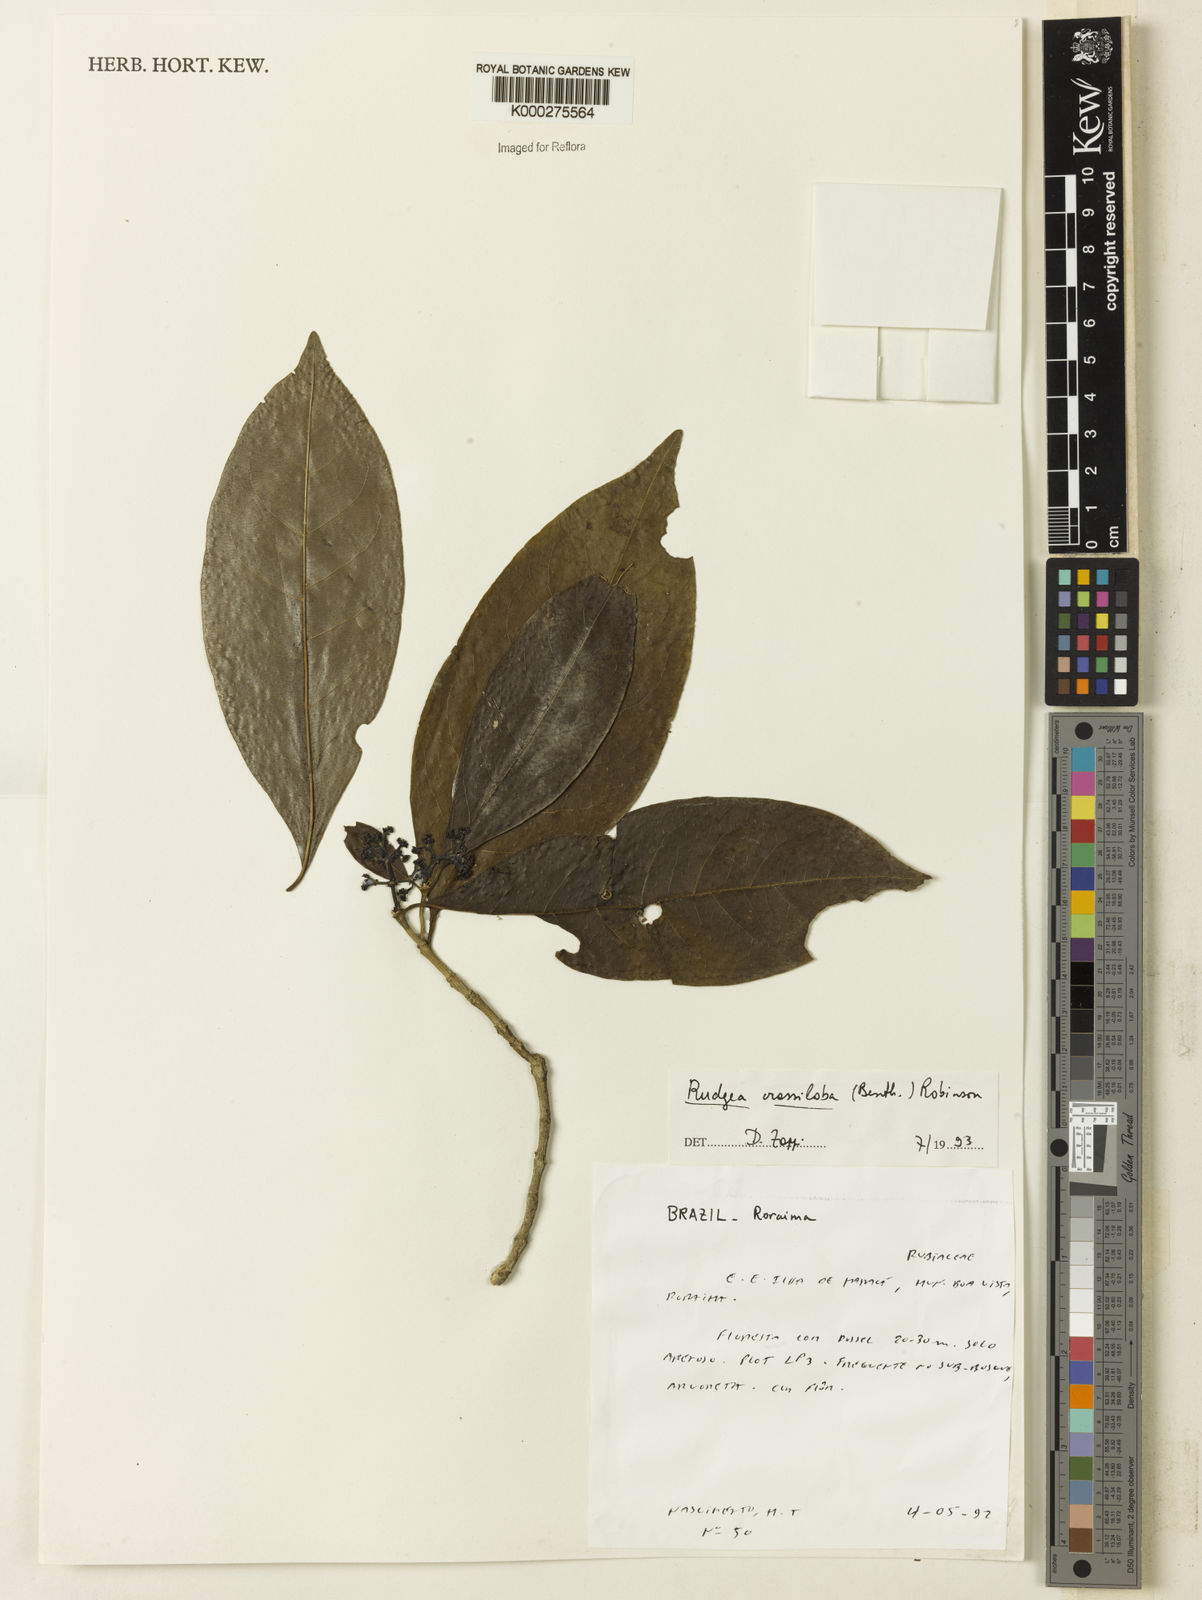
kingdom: Plantae
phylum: Tracheophyta
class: Magnoliopsida
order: Gentianales
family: Rubiaceae
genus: Rudgea
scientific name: Rudgea crassiloba
